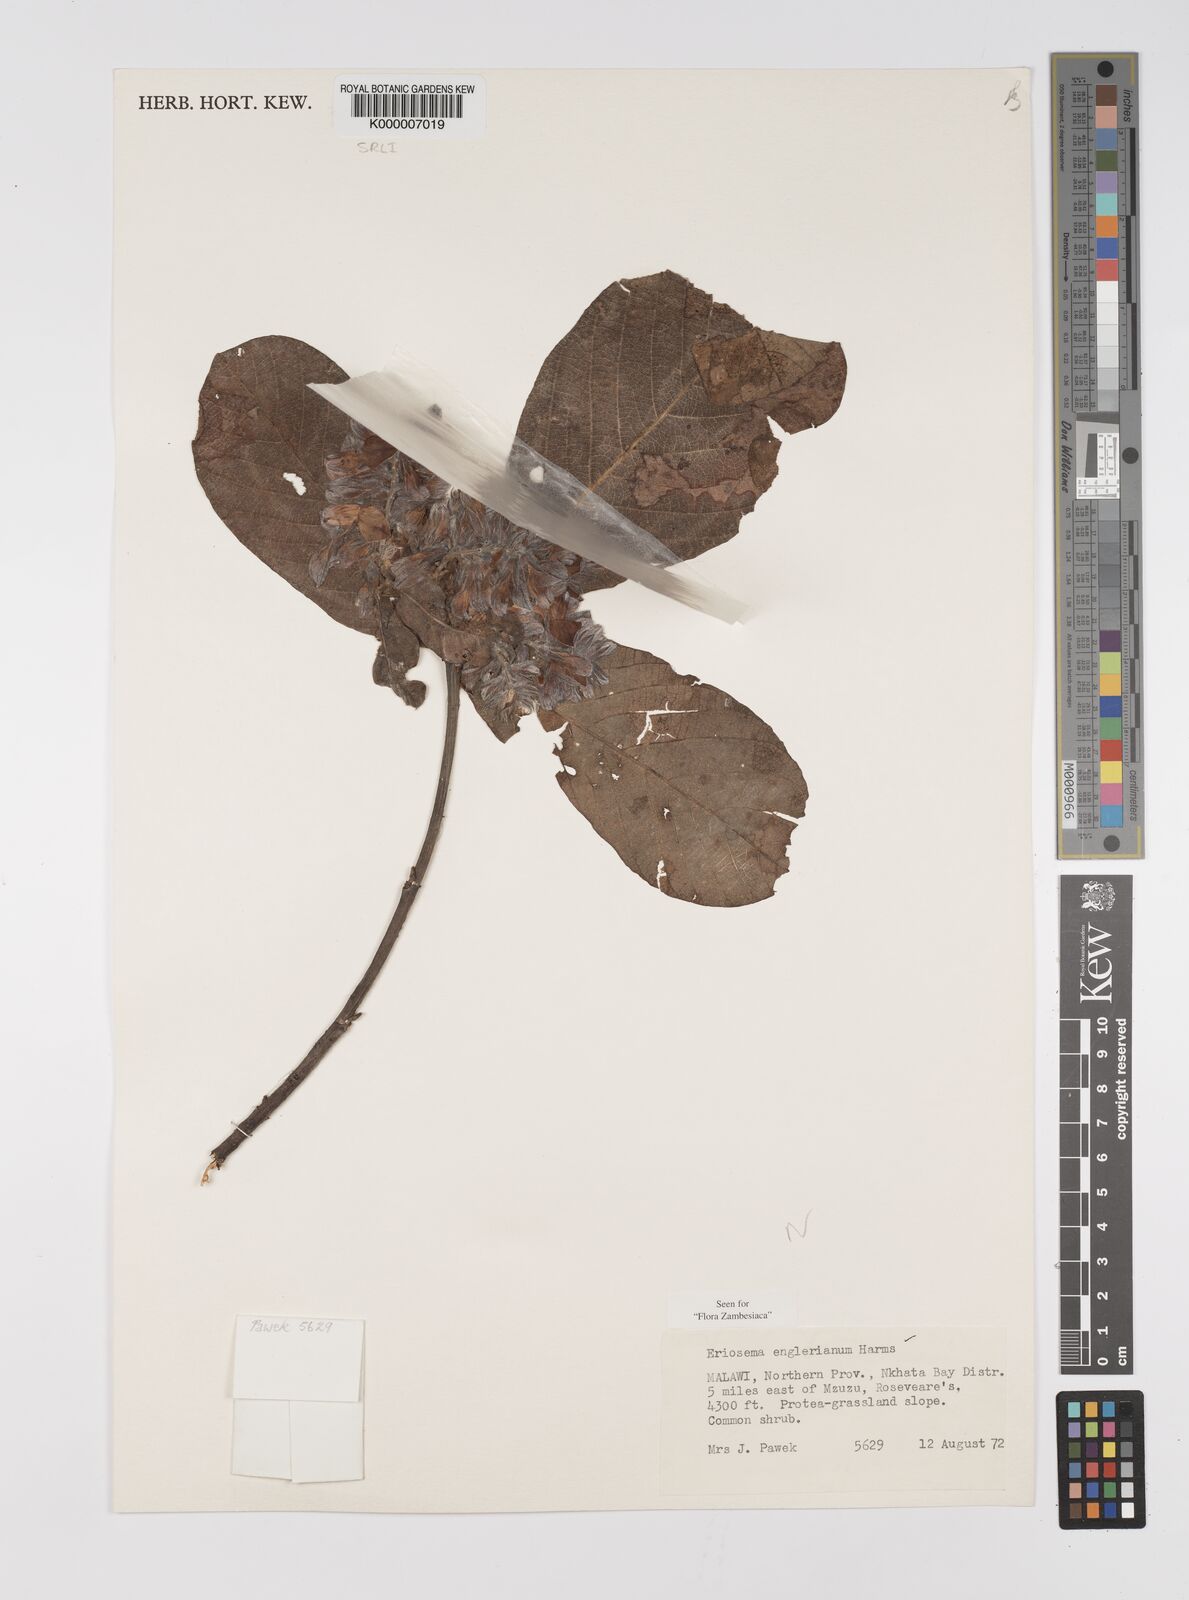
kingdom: Plantae
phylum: Tracheophyta
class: Magnoliopsida
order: Fabales
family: Fabaceae
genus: Eriosema
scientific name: Eriosema englerianum
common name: Blue bush
